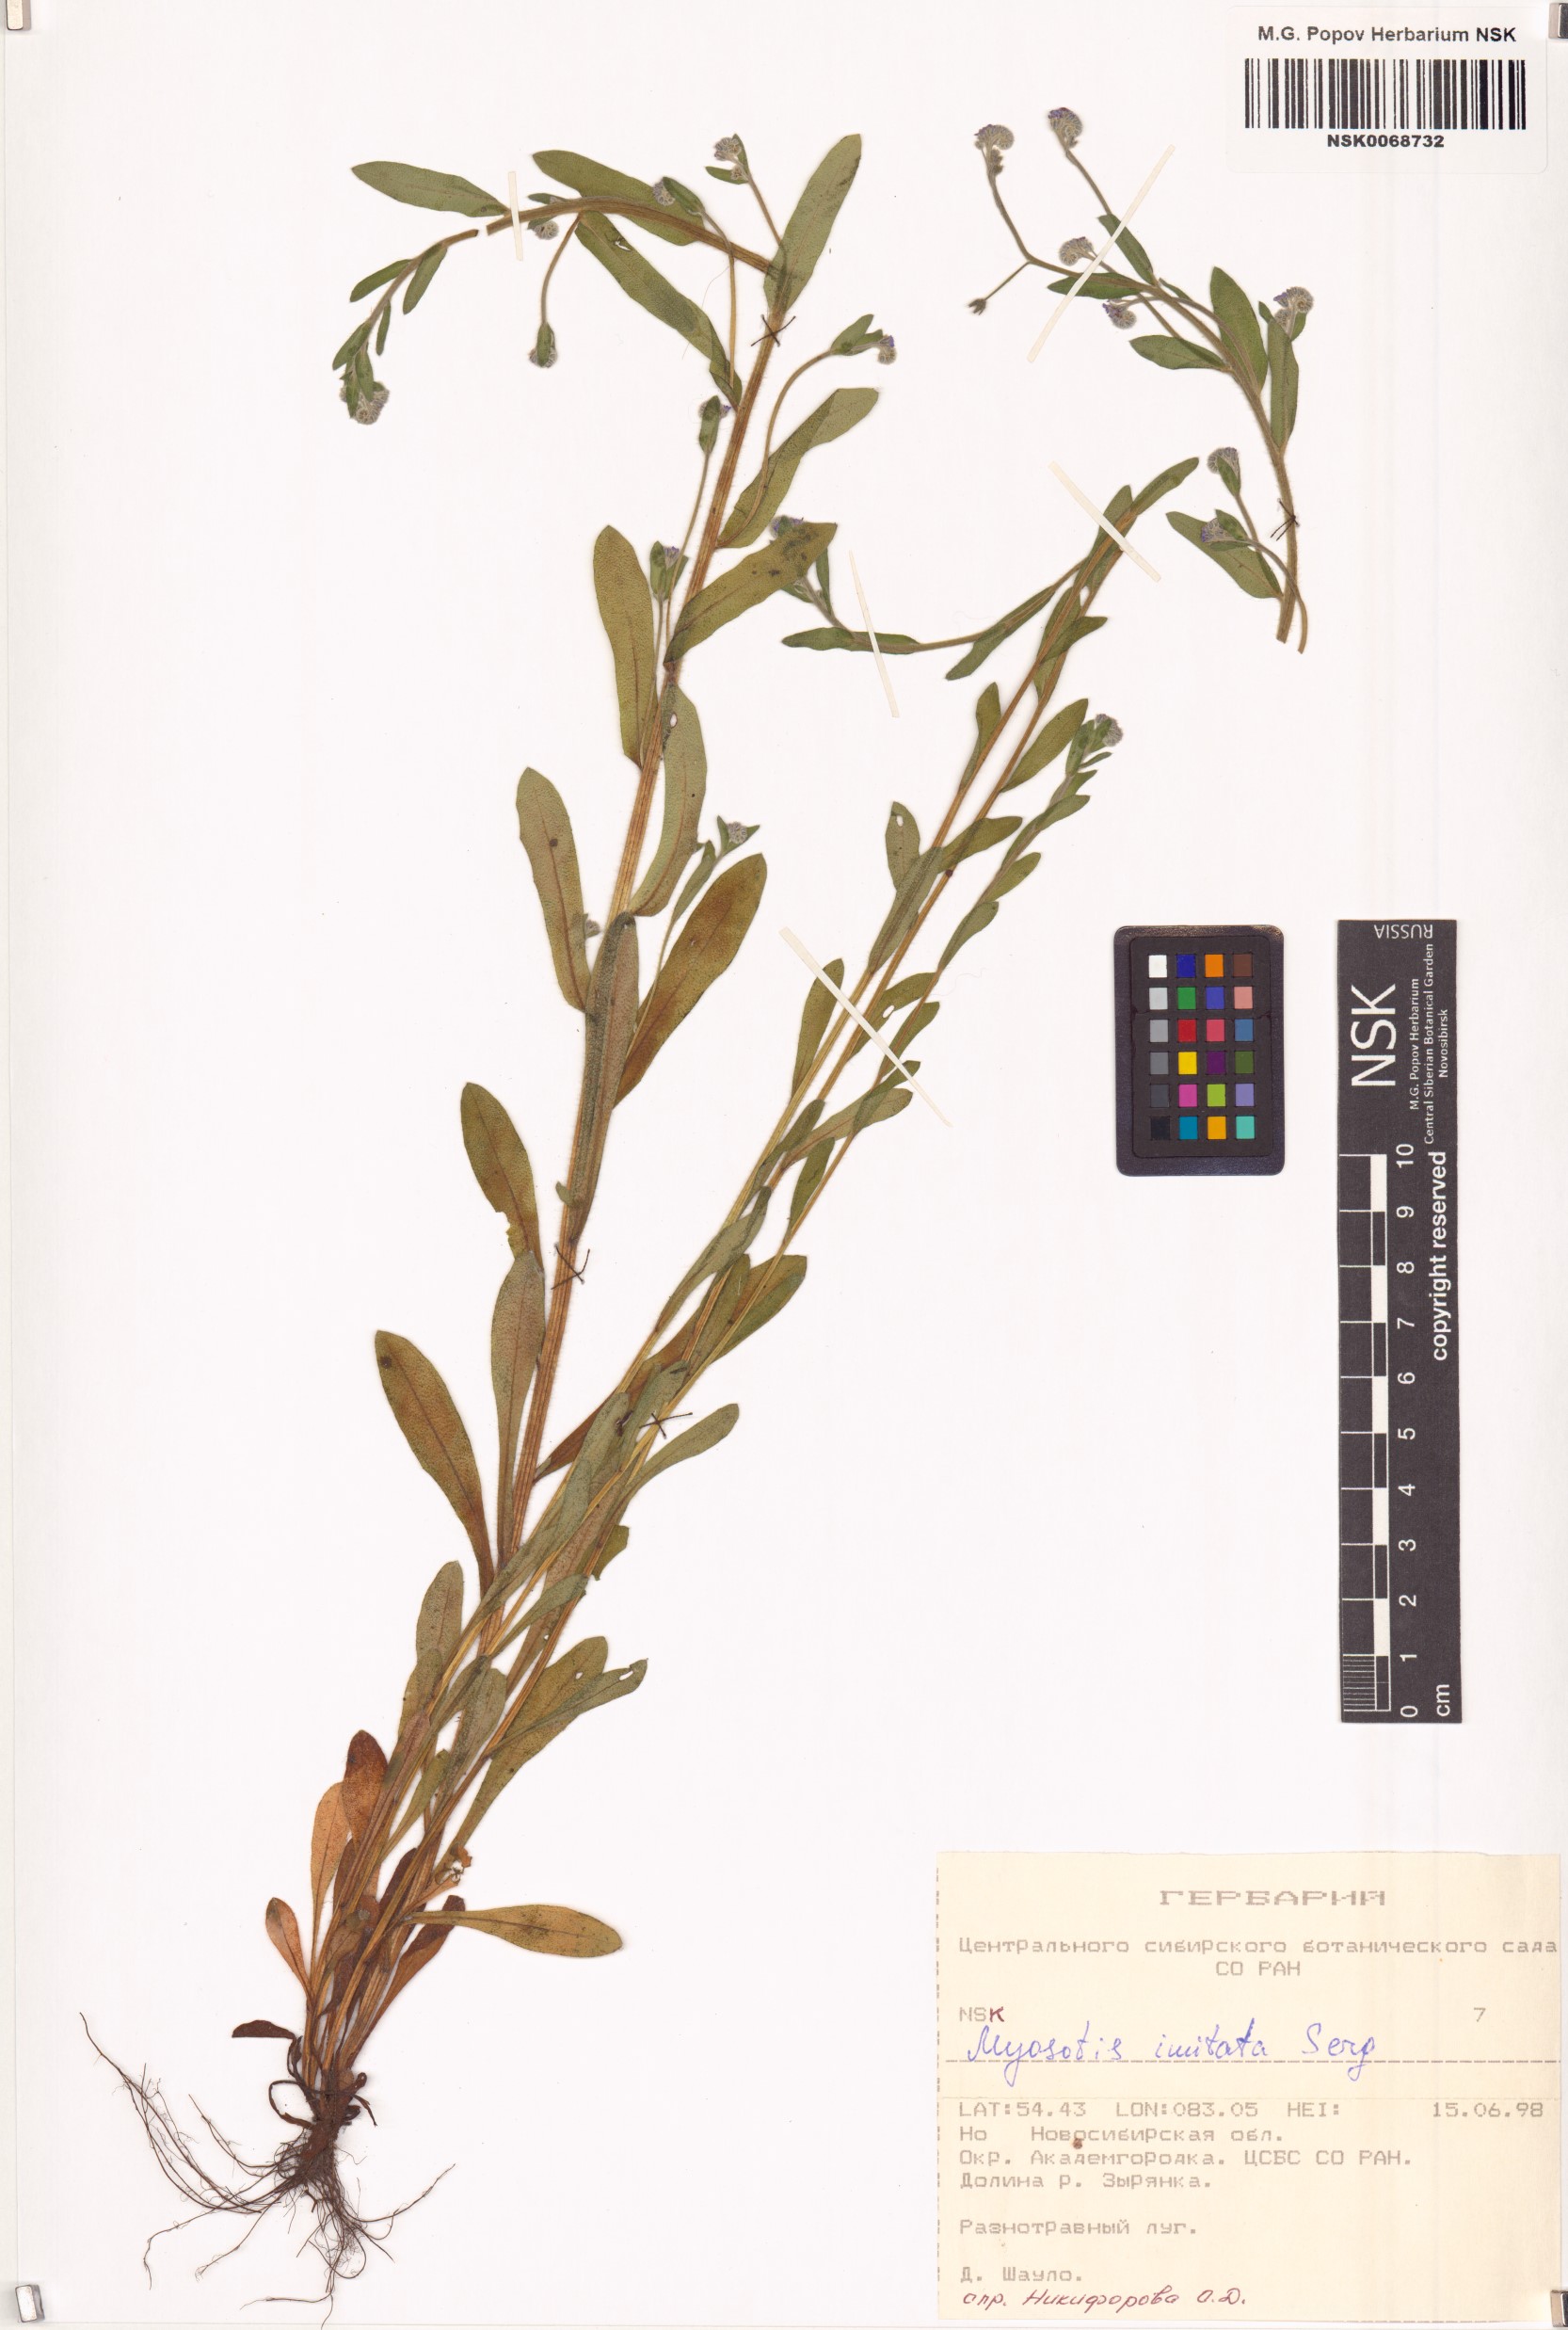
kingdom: Plantae
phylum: Tracheophyta
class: Magnoliopsida
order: Boraginales
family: Boraginaceae
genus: Myosotis
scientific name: Myosotis imitata
